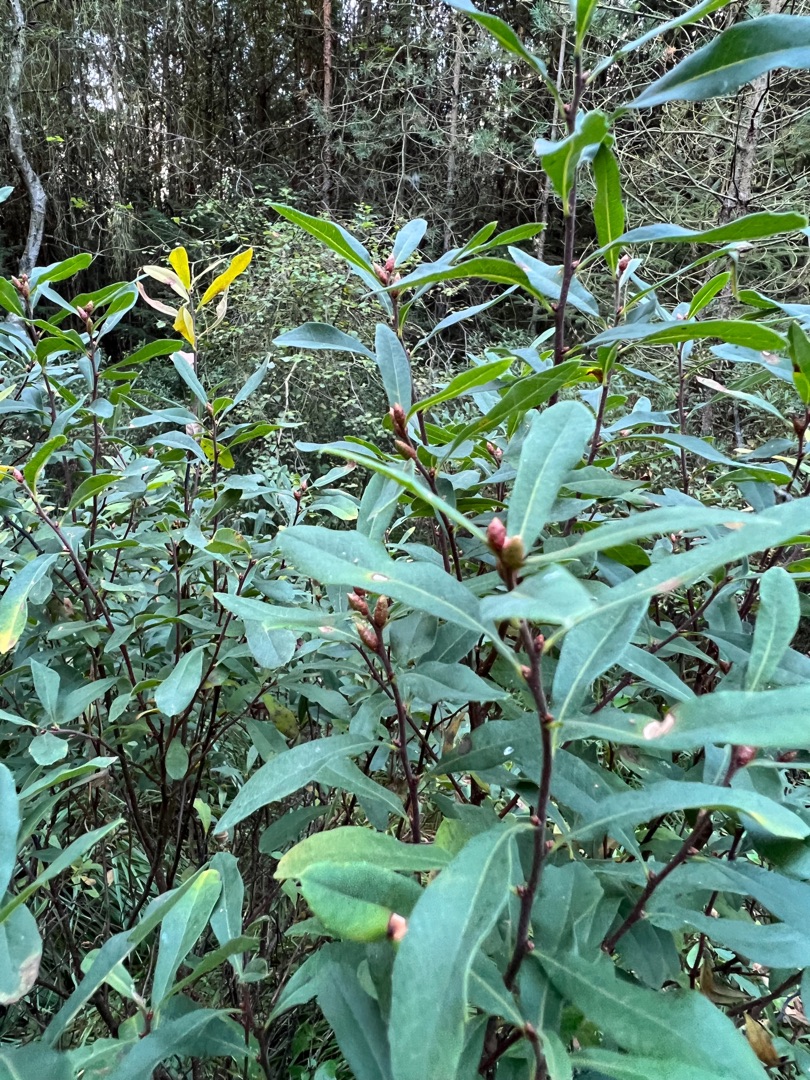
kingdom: Plantae
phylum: Tracheophyta
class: Magnoliopsida
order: Fagales
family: Myricaceae
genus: Myrica
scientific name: Myrica gale
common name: Pors
